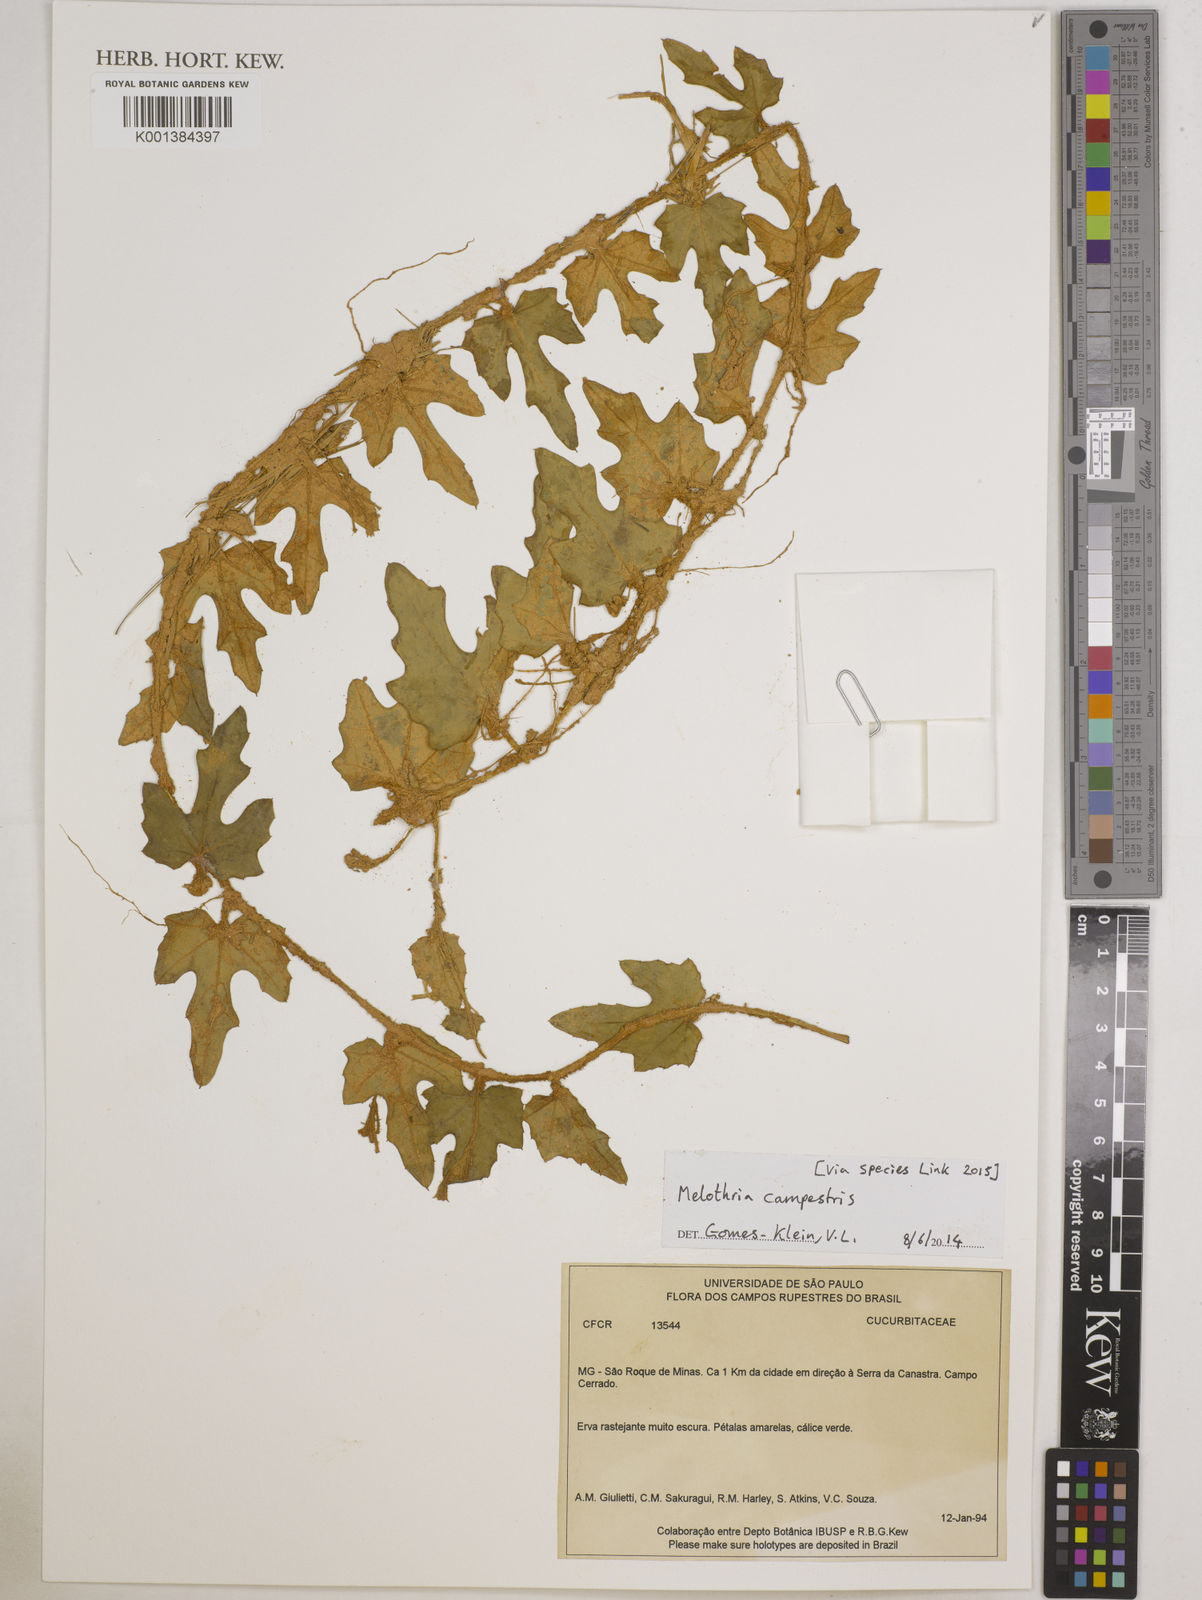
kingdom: Plantae
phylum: Tracheophyta
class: Magnoliopsida
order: Cucurbitales
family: Cucurbitaceae
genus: Melothria
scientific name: Melothria campestris
